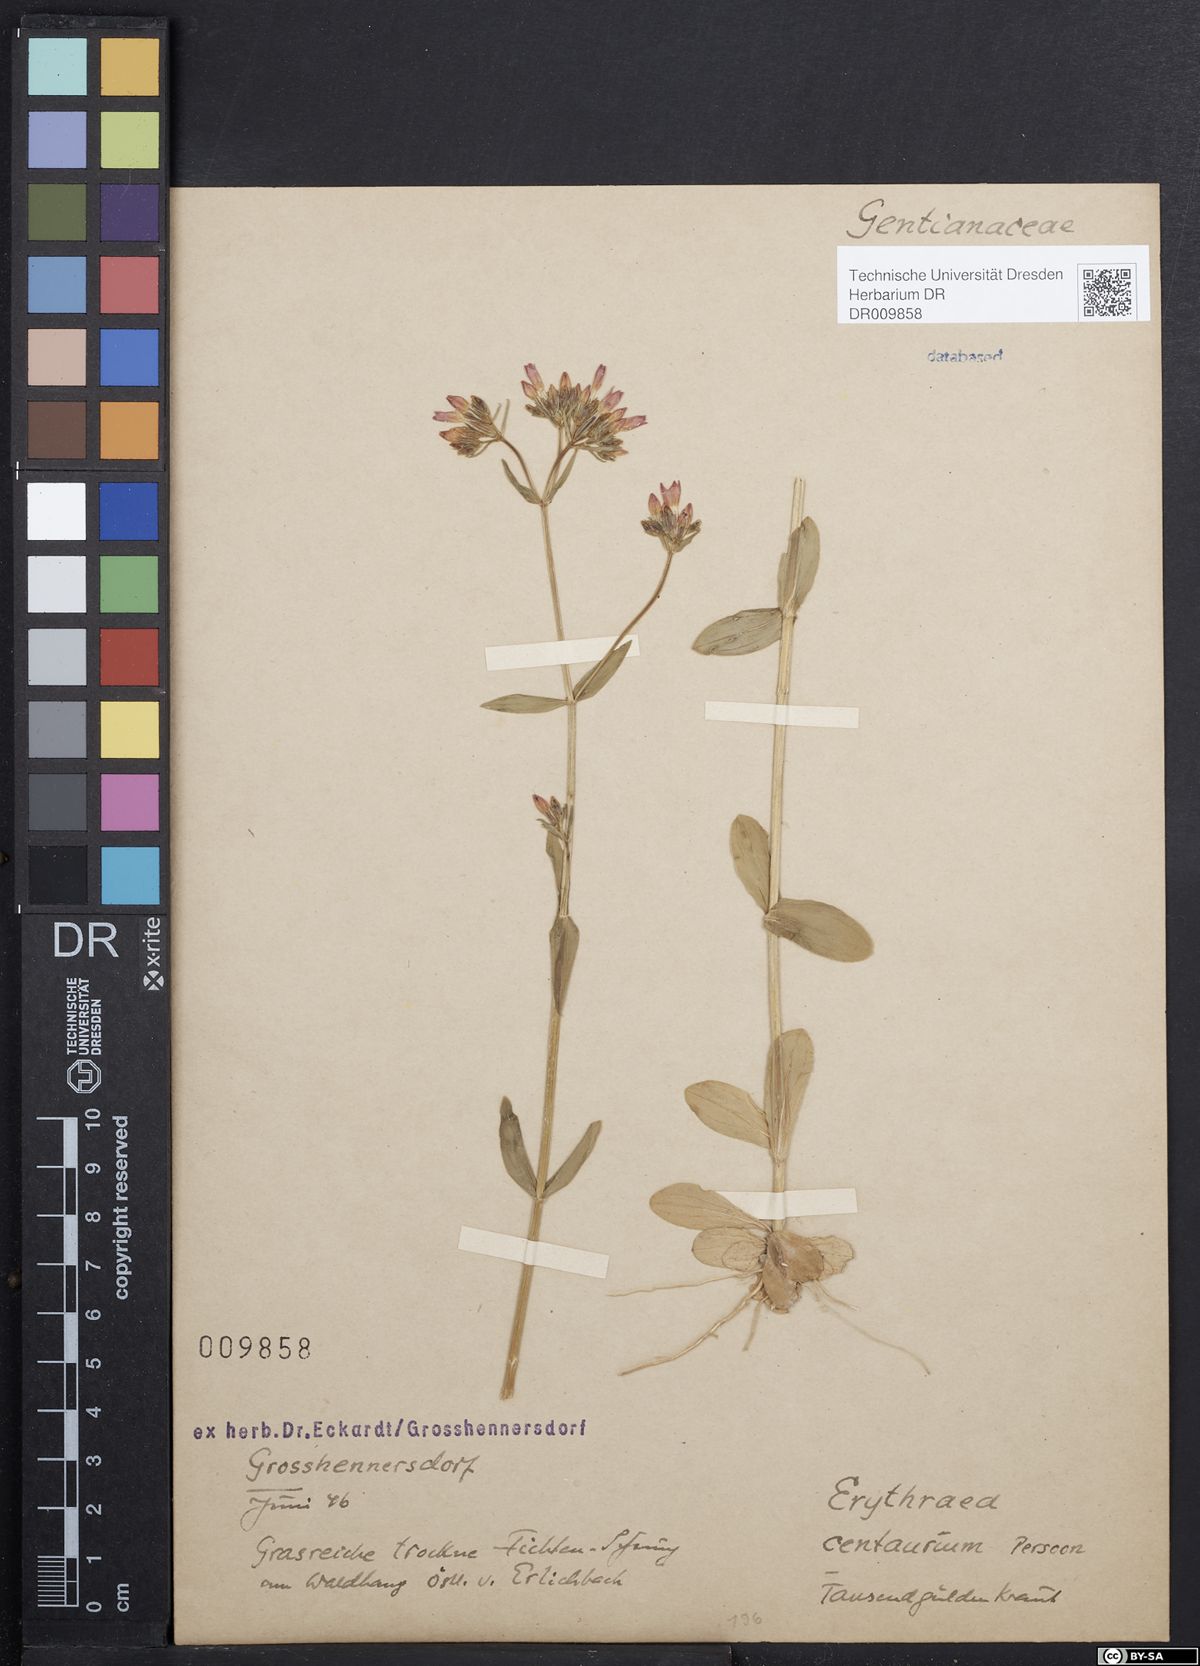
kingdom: Plantae
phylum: Tracheophyta
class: Magnoliopsida
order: Gentianales
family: Gentianaceae
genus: Centaurium
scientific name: Centaurium erythraea
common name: Common centaury
